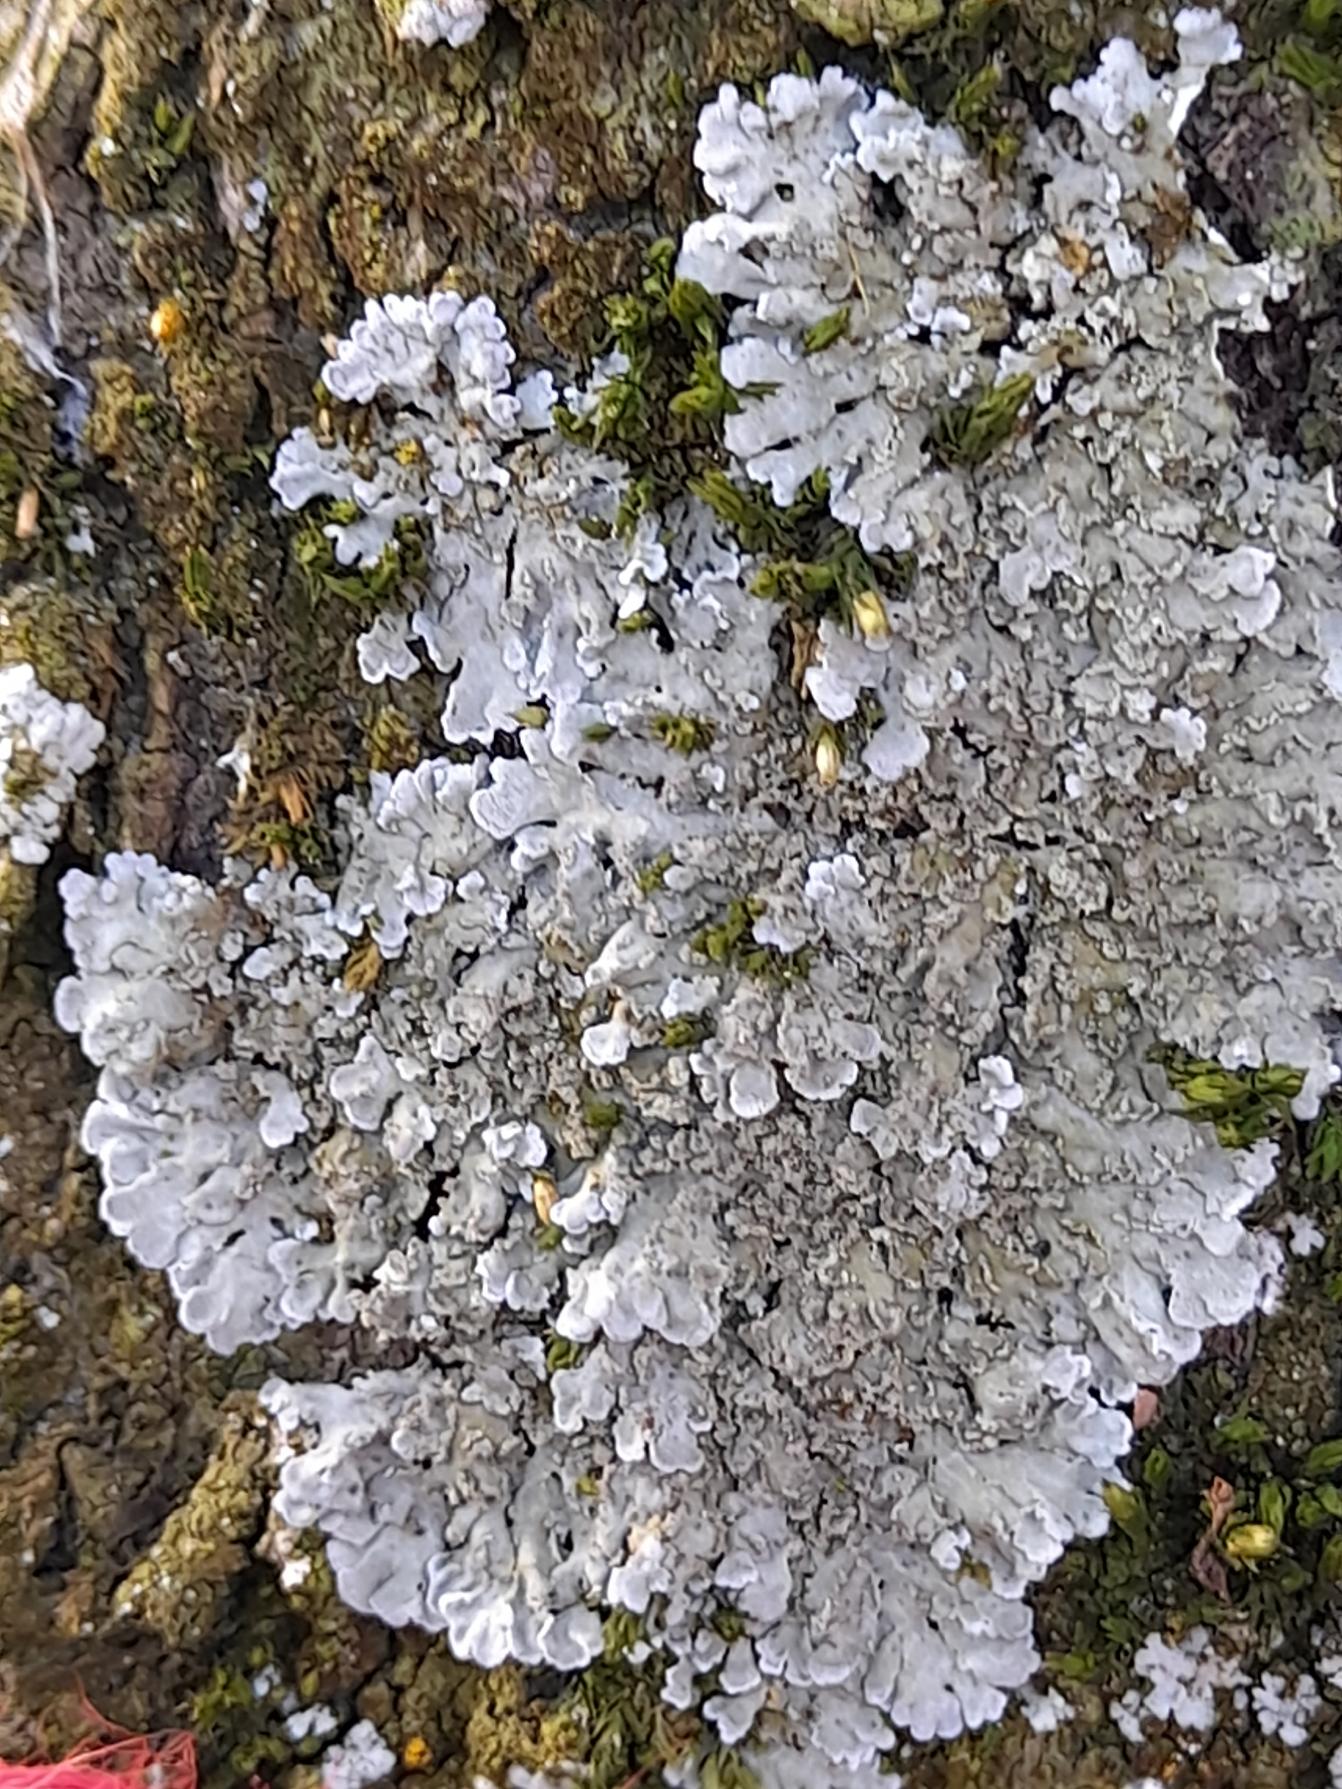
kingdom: Fungi
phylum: Ascomycota
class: Lecanoromycetes
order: Lecanorales
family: Parmeliaceae
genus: Parmelia
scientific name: Parmelia sulcata
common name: Rynket skållav
